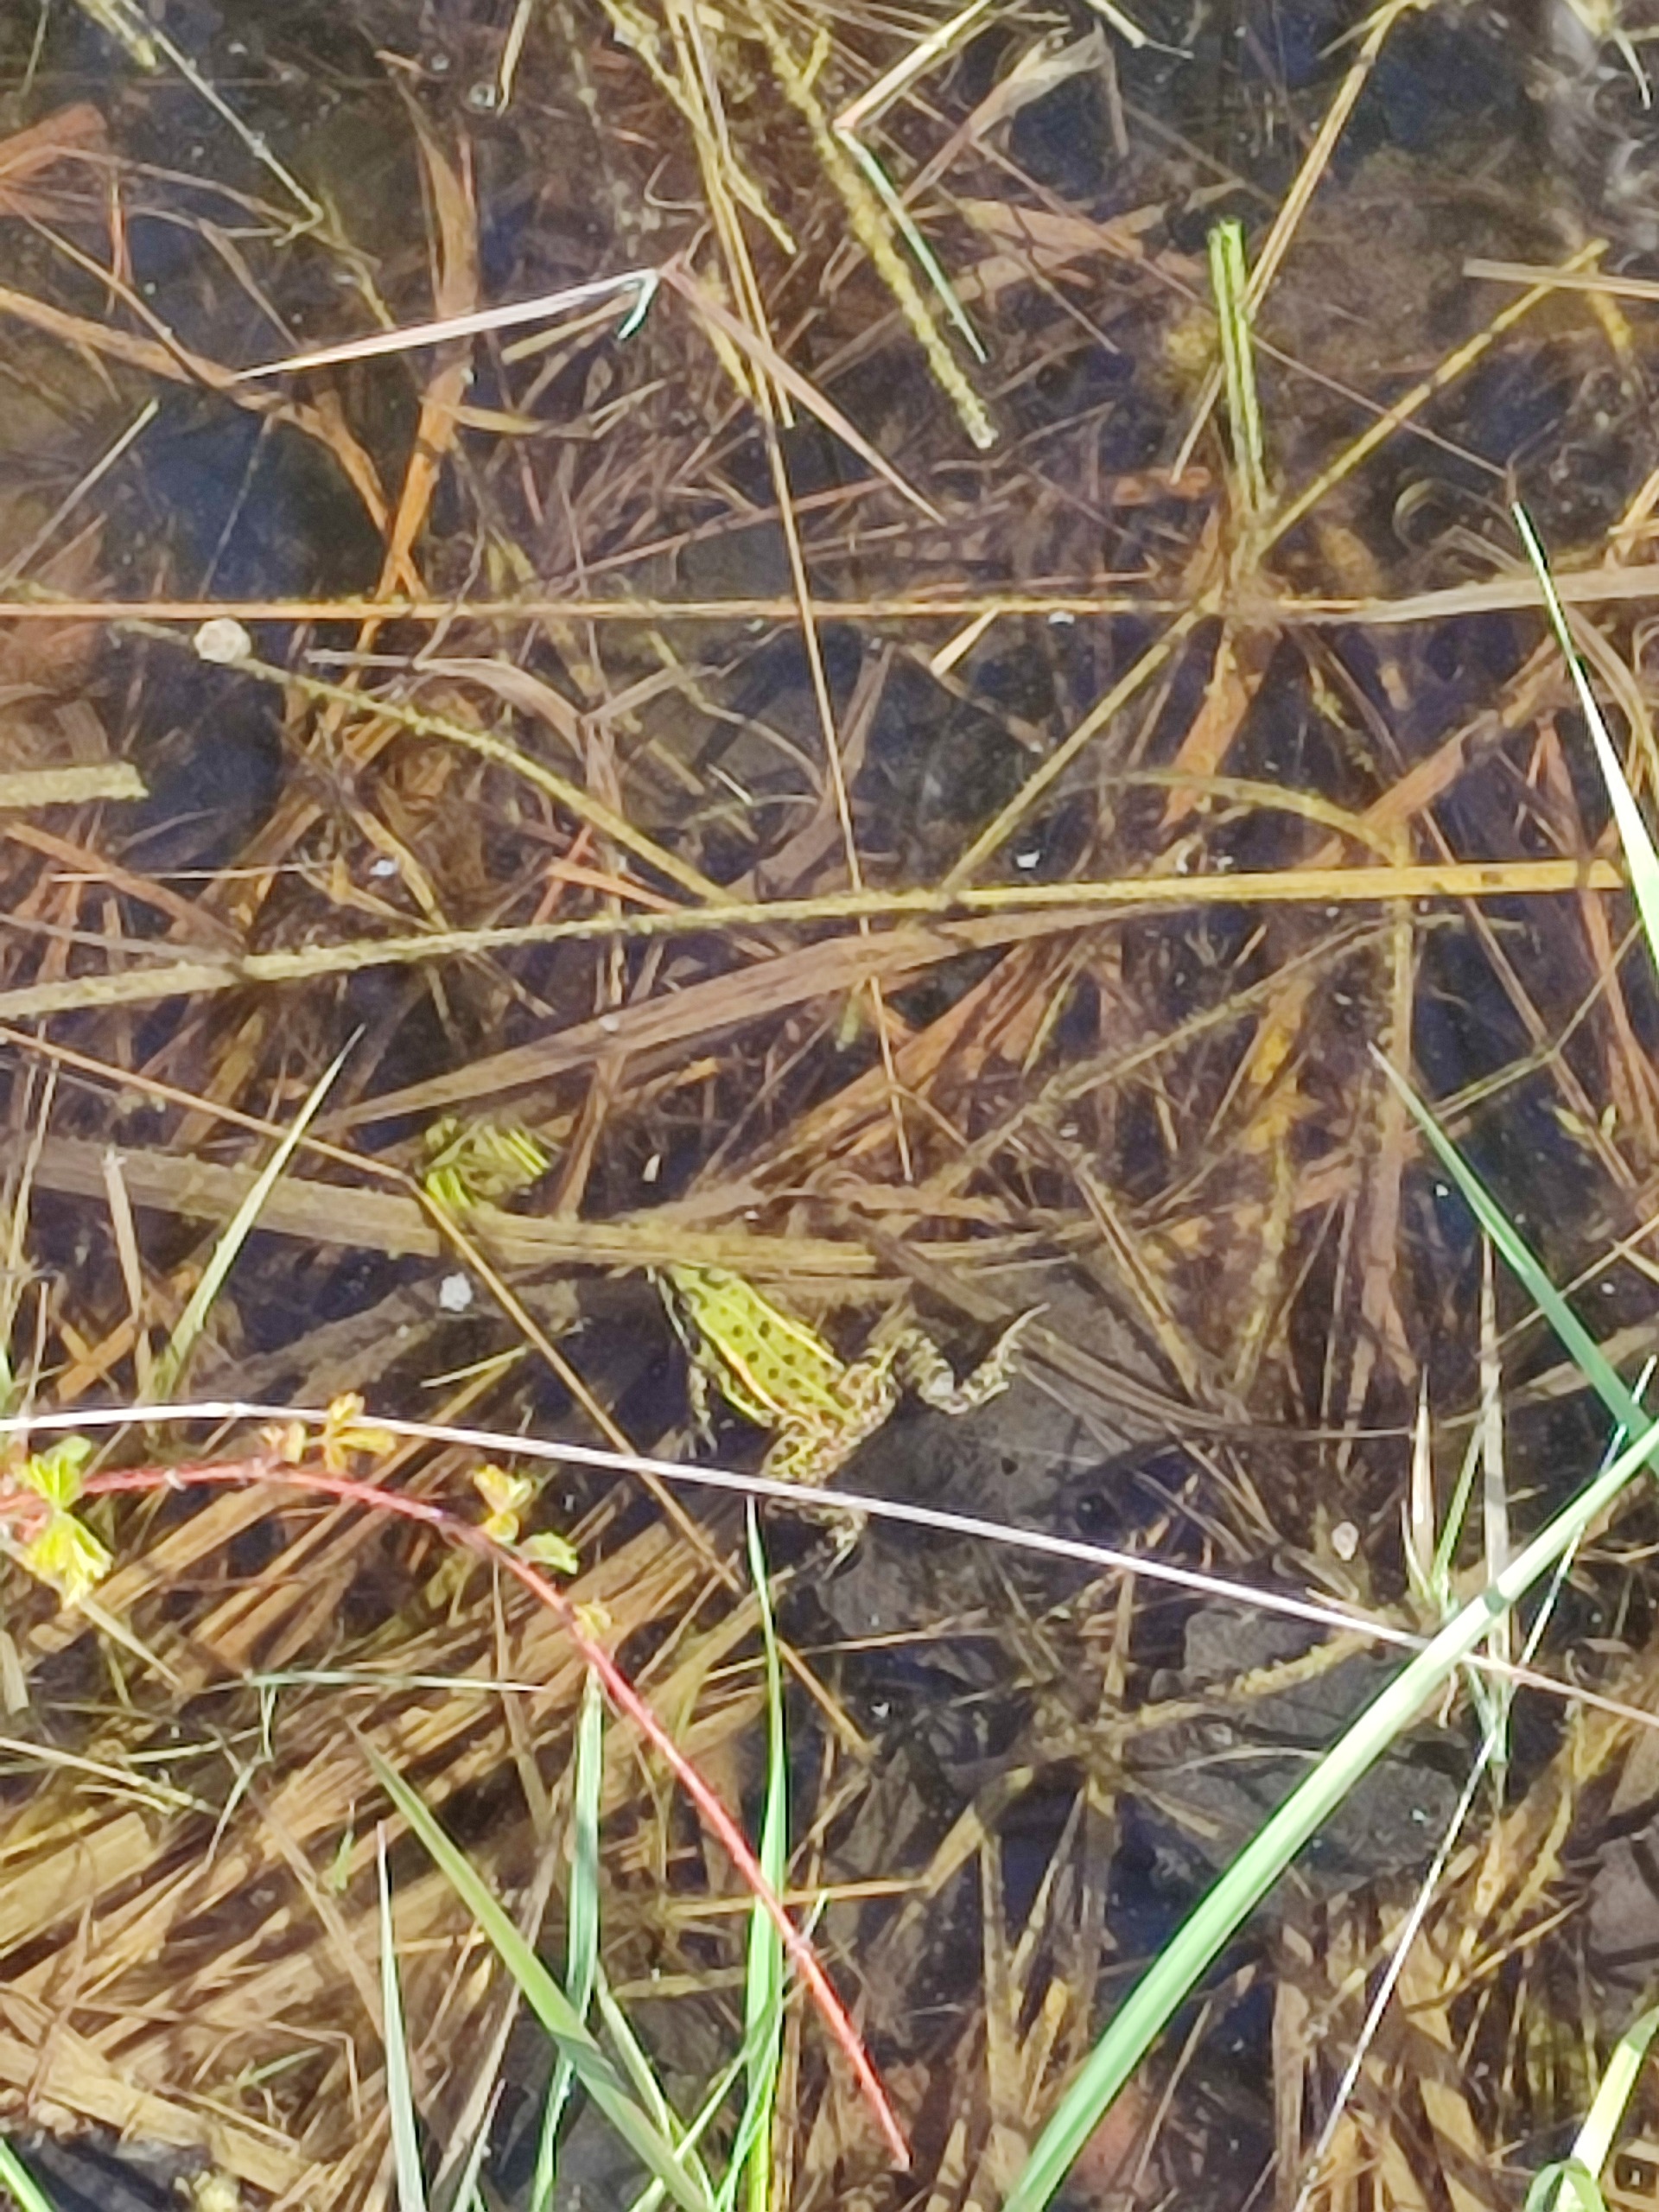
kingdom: Animalia
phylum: Chordata
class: Amphibia
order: Anura
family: Ranidae
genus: Pelophylax
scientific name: Pelophylax lessonae
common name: Grøn frø
